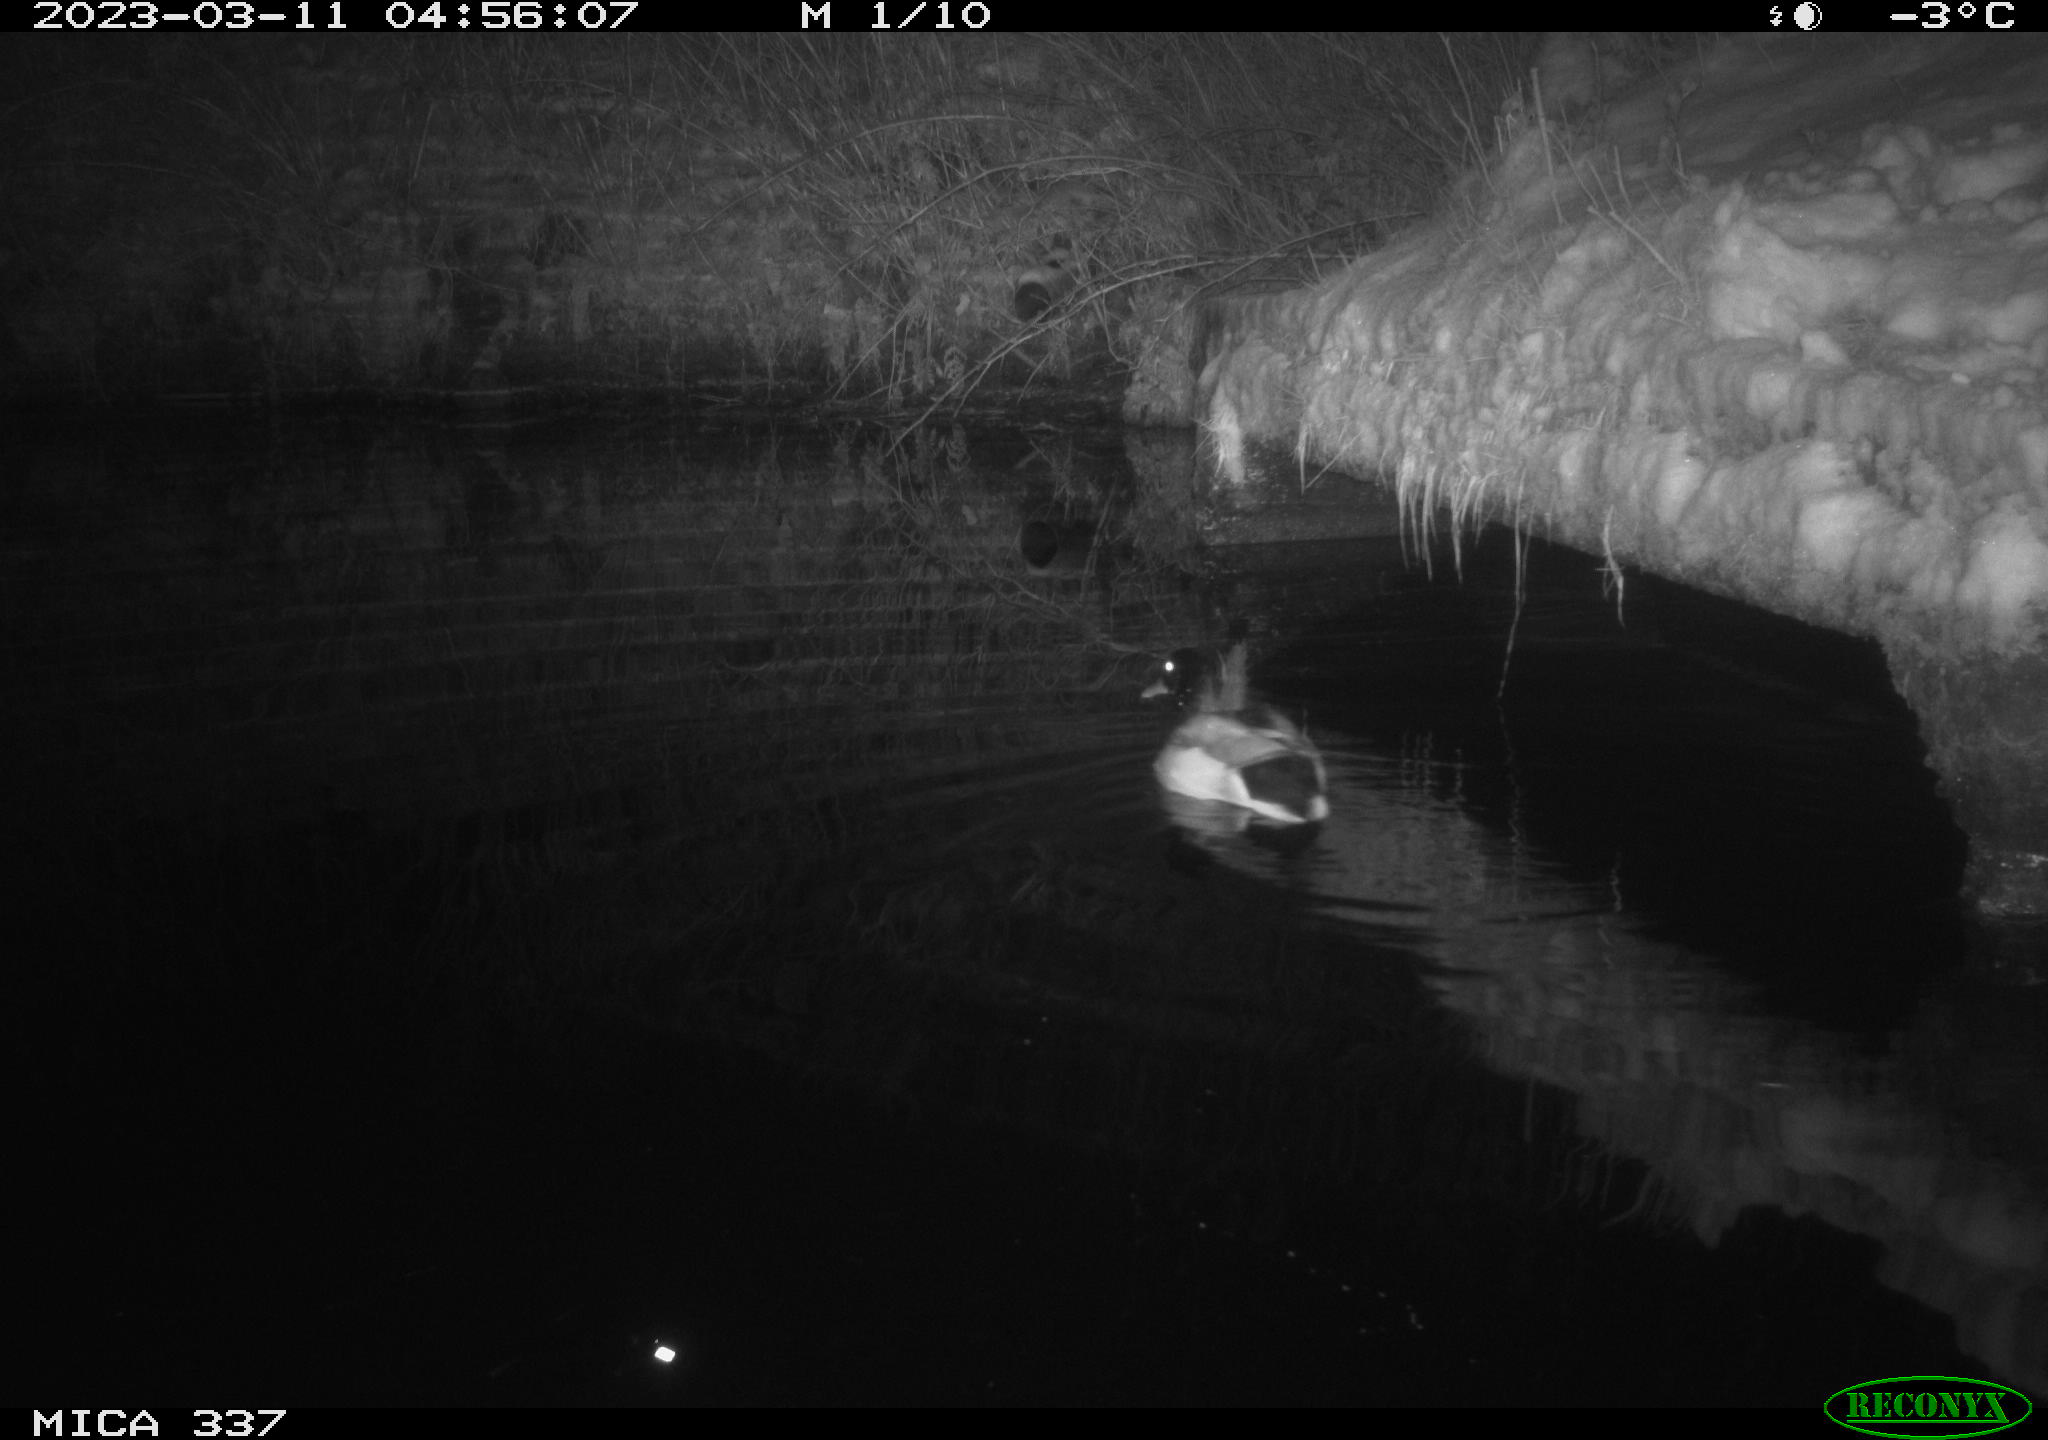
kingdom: Animalia
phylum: Chordata
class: Aves
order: Anseriformes
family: Anatidae
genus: Anas
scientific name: Anas
